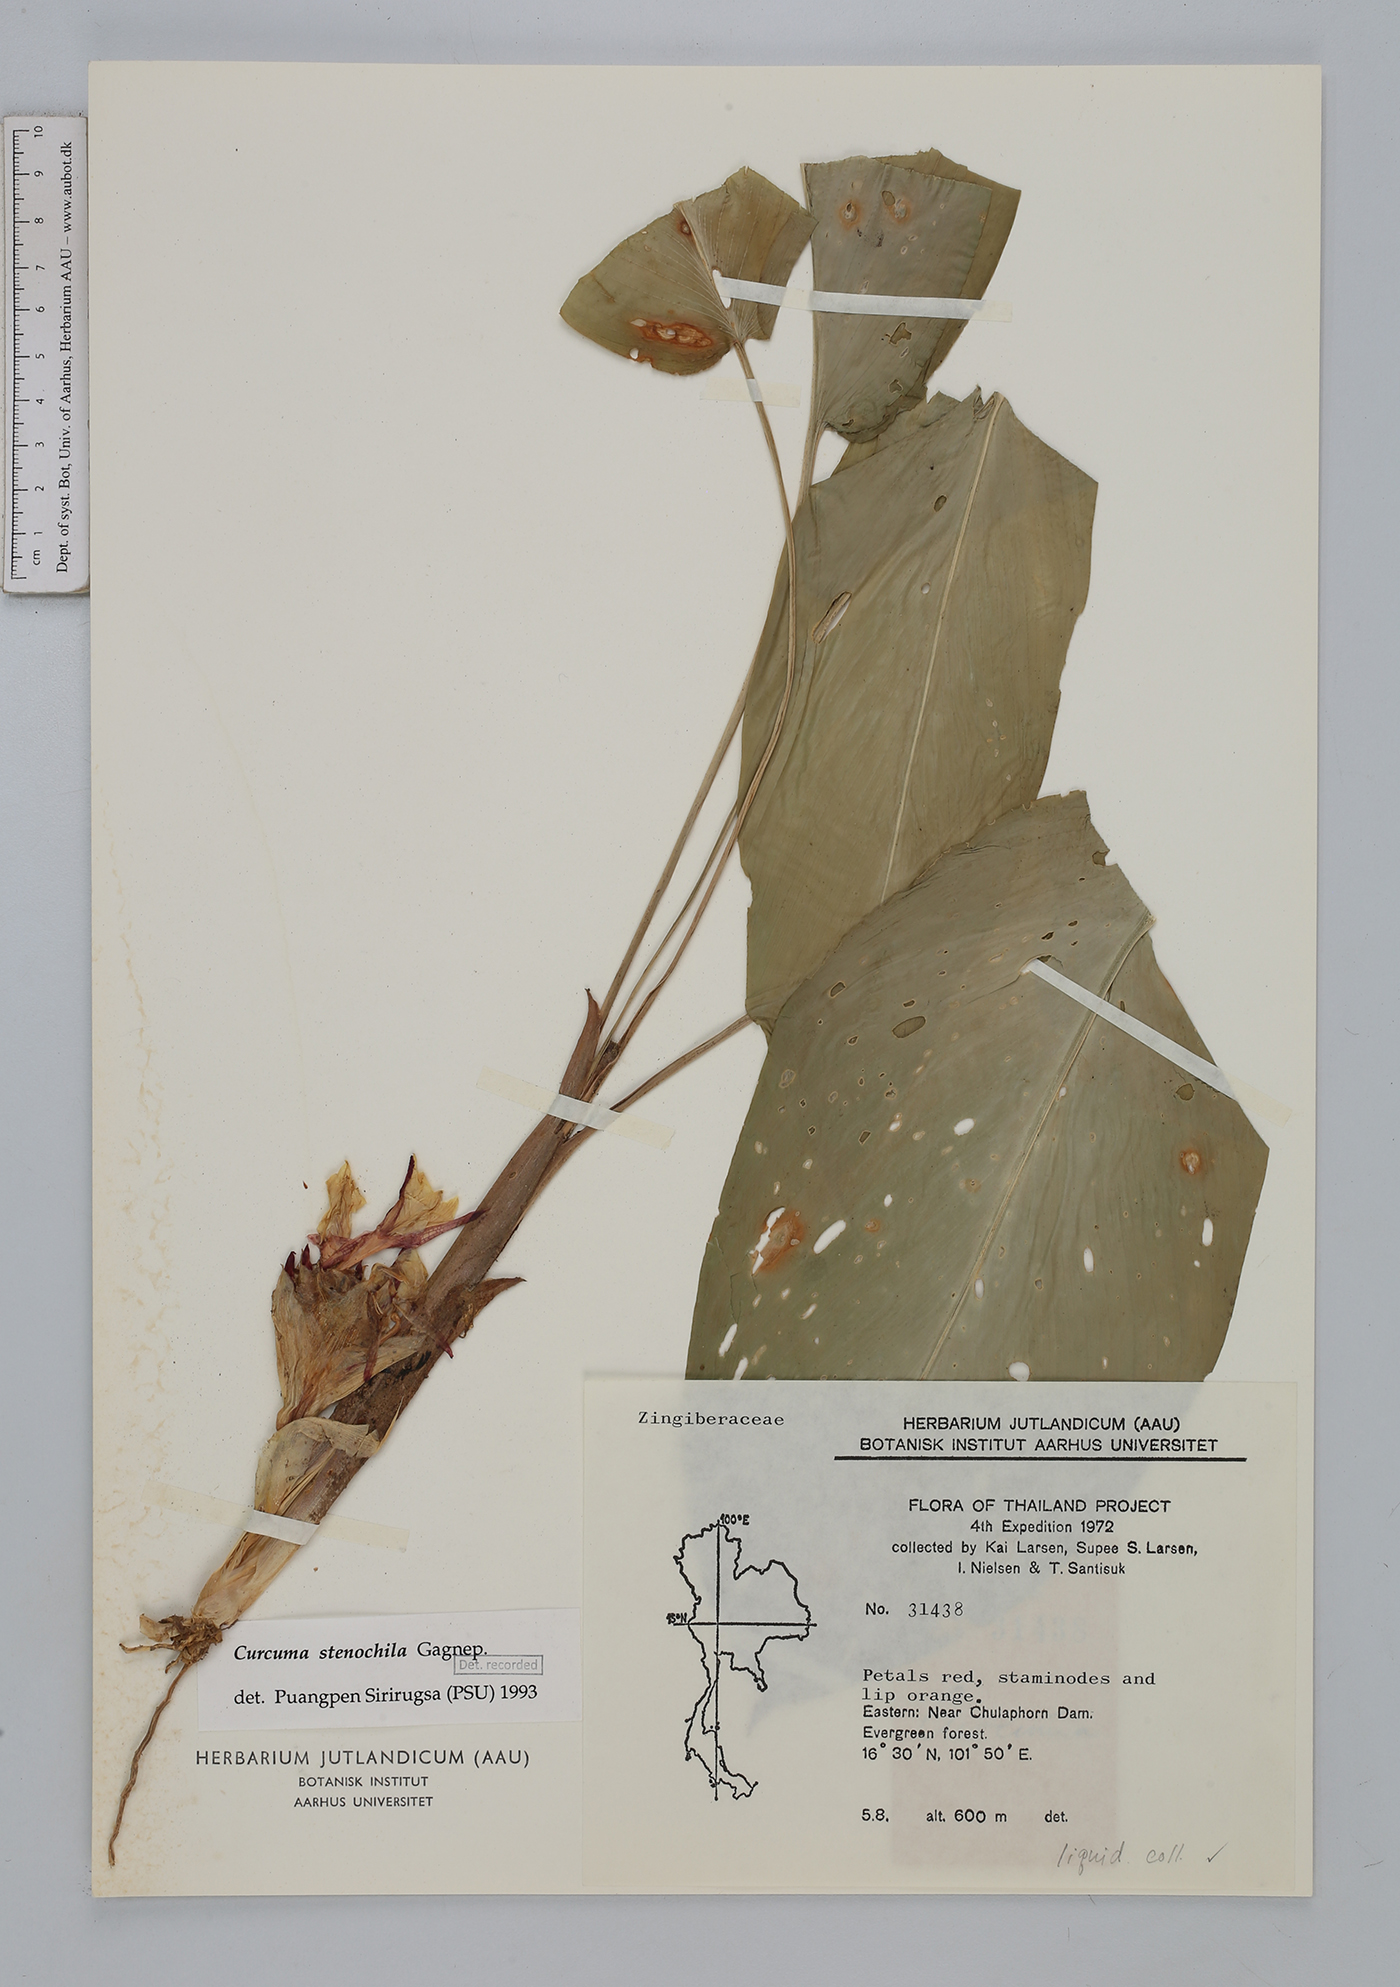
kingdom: Plantae
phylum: Tracheophyta
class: Liliopsida
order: Zingiberales
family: Zingiberaceae
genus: Curcuma
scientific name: Curcuma stenochila
